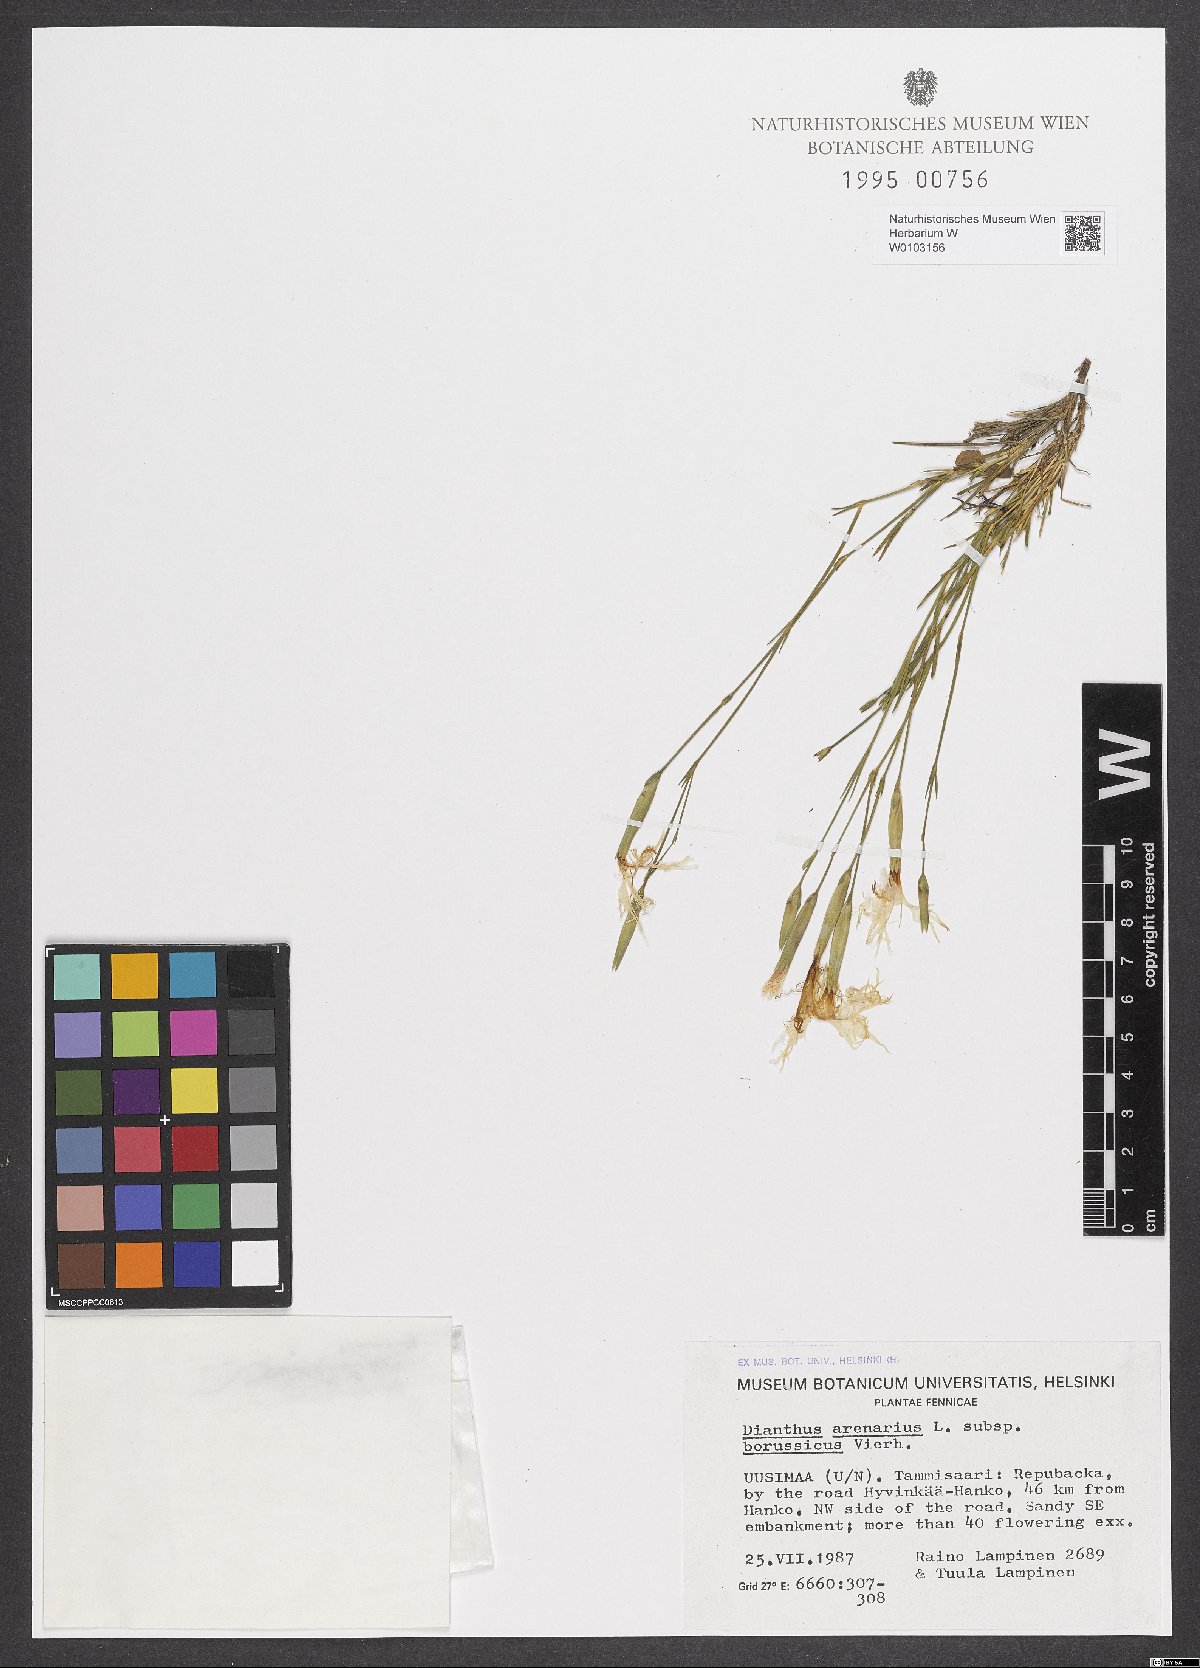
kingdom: Plantae
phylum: Tracheophyta
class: Magnoliopsida
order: Caryophyllales
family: Caryophyllaceae
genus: Dianthus
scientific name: Dianthus arenarius
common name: Stone pink
